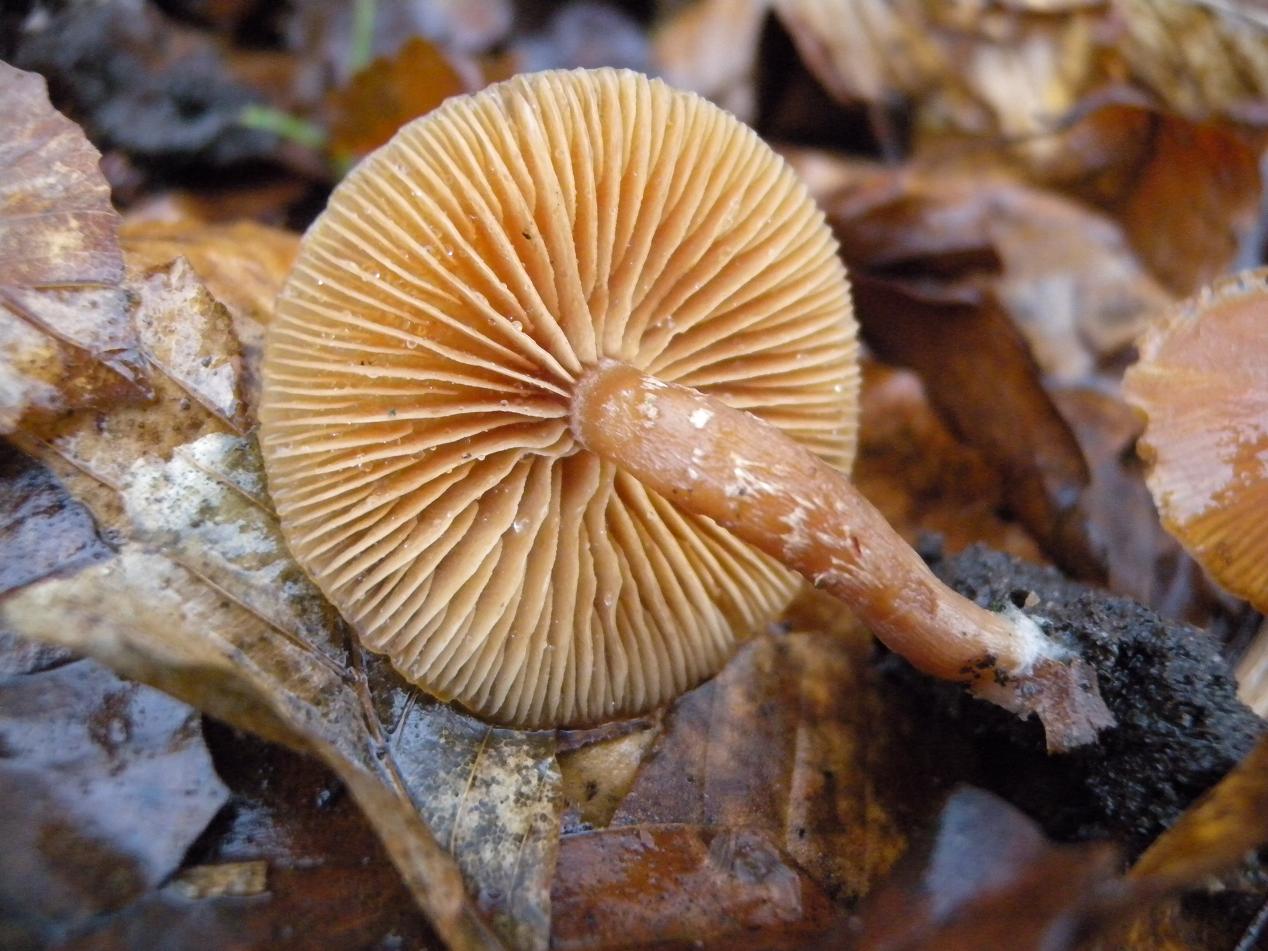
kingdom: Fungi
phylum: Basidiomycota
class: Agaricomycetes
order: Agaricales
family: Tubariaceae
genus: Tubaria
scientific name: Tubaria furfuracea
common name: kliddet fnughat
